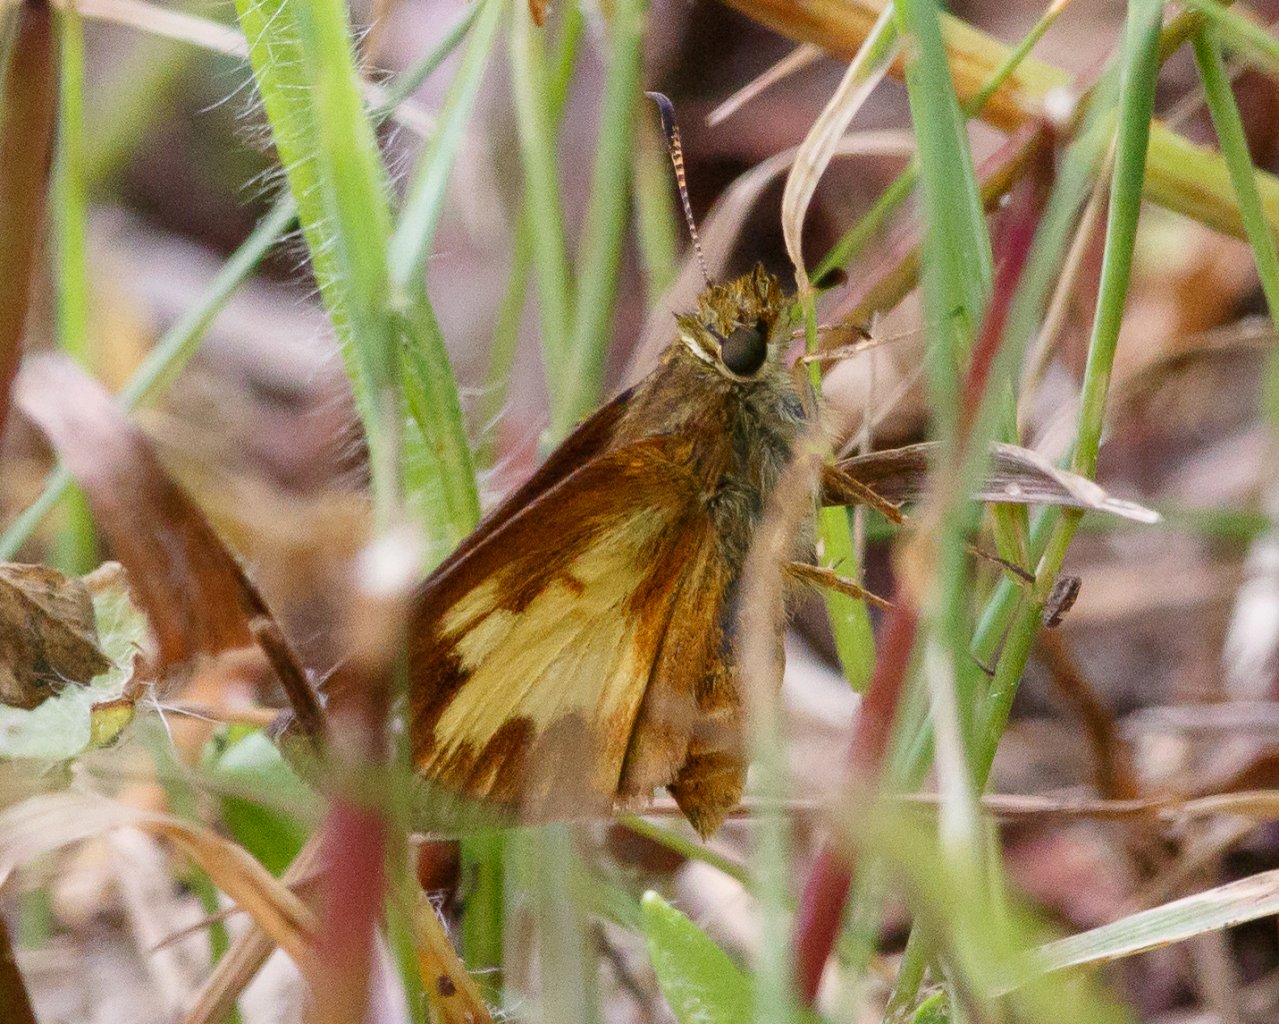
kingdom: Animalia
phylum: Arthropoda
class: Insecta
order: Lepidoptera
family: Hesperiidae
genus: Poanes
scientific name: Poanes massasoit
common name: Mulberry Wing
